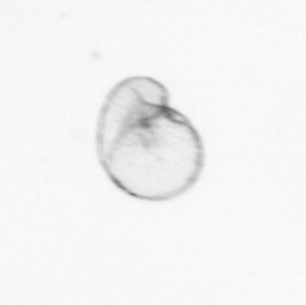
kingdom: Chromista
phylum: Myzozoa
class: Dinophyceae
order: Noctilucales
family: Noctilucaceae
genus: Noctiluca
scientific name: Noctiluca scintillans
